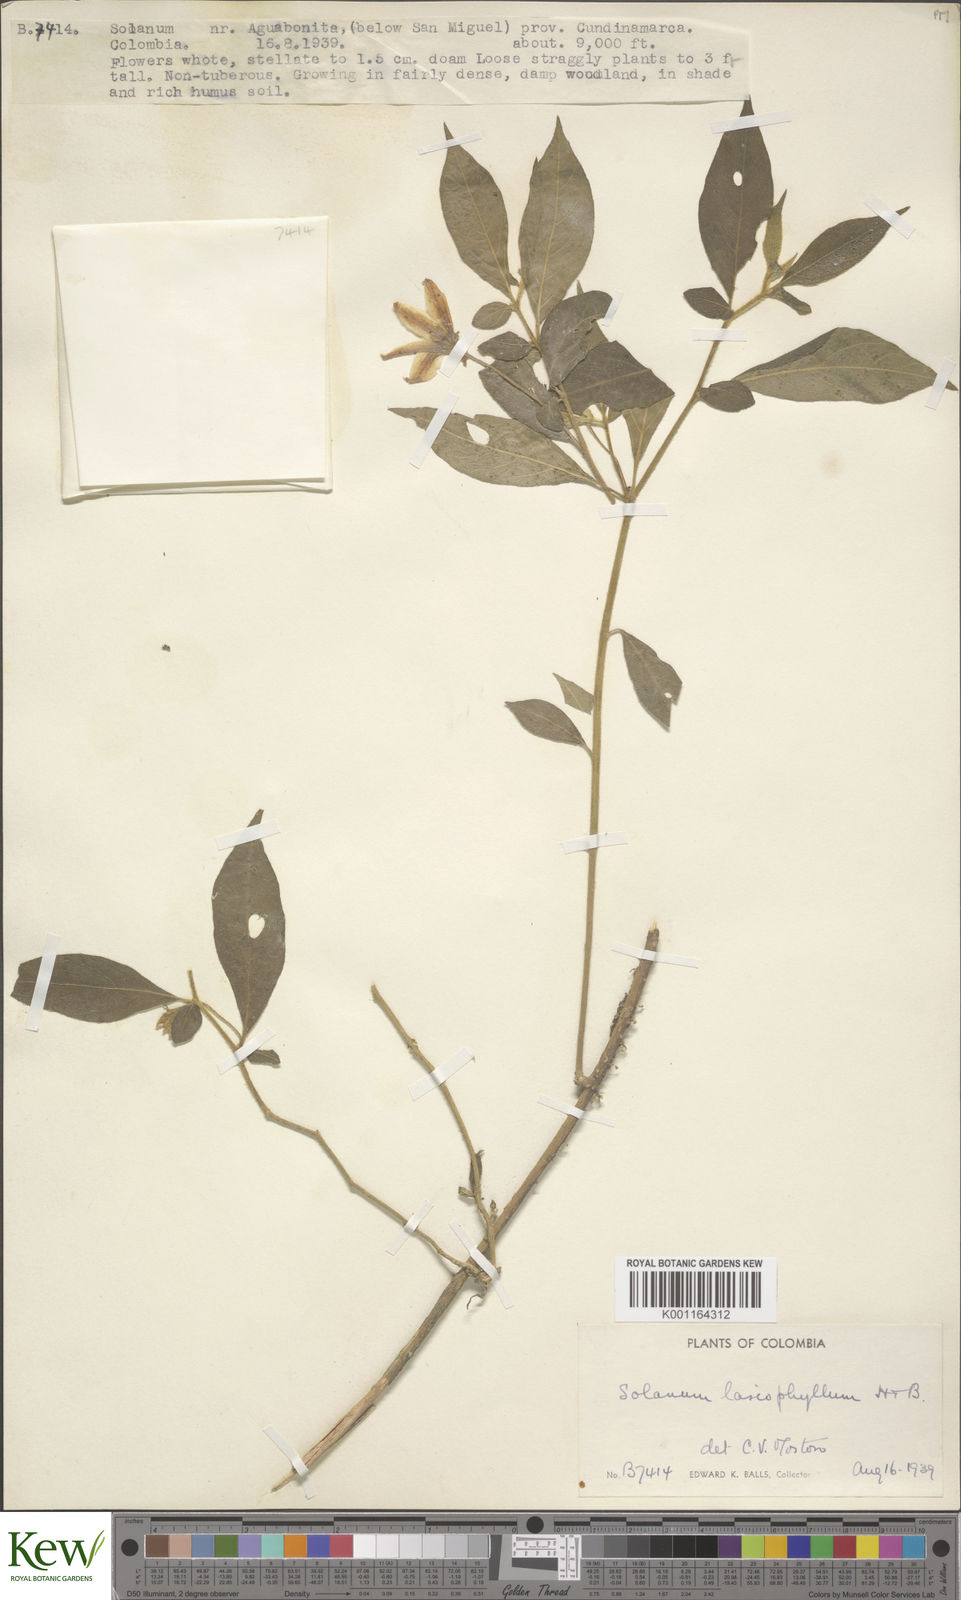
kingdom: Plantae
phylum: Tracheophyta
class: Magnoliopsida
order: Solanales
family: Solanaceae
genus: Solanum
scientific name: Solanum lasiophyllum
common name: Flannelbush
